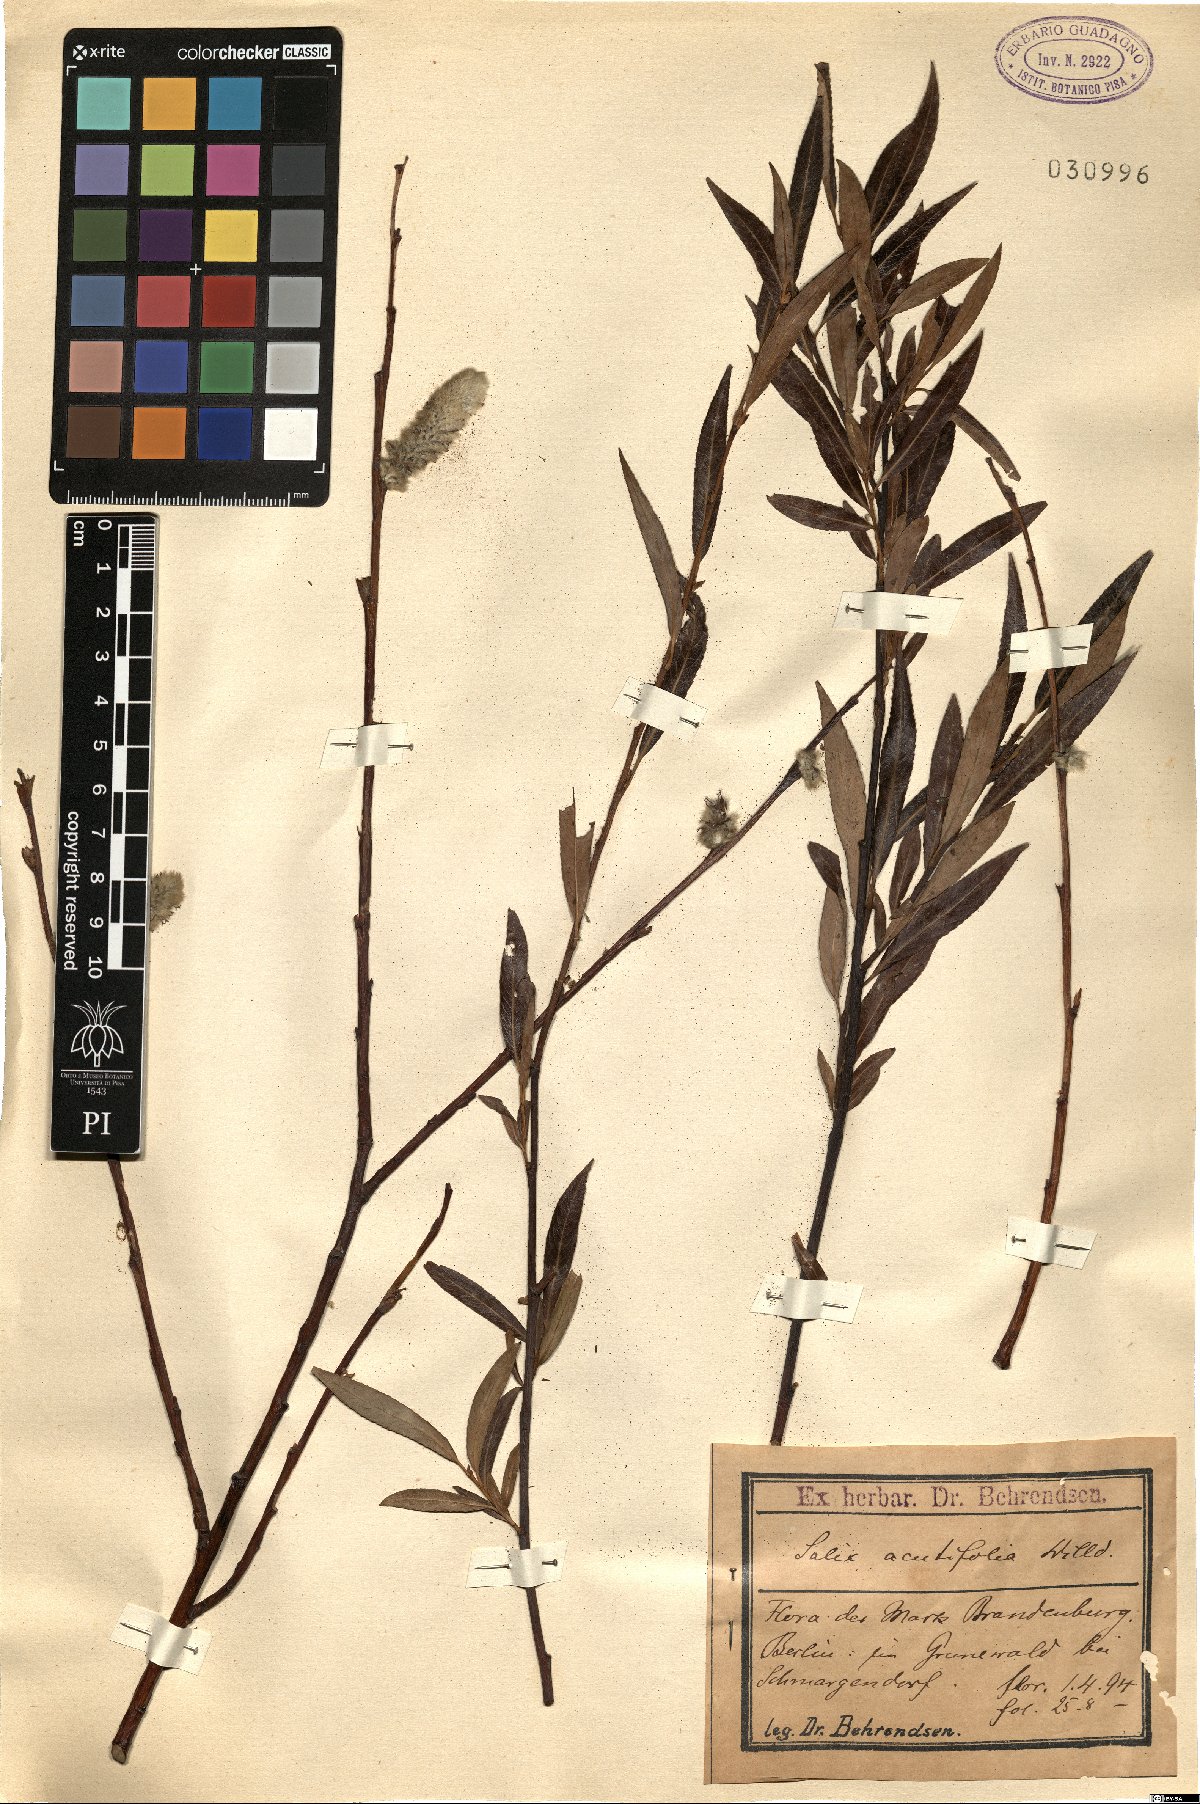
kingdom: Plantae
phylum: Tracheophyta
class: Magnoliopsida
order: Malpighiales
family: Salicaceae
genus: Salix
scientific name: Salix acutifolia
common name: Siberian violet-willow
